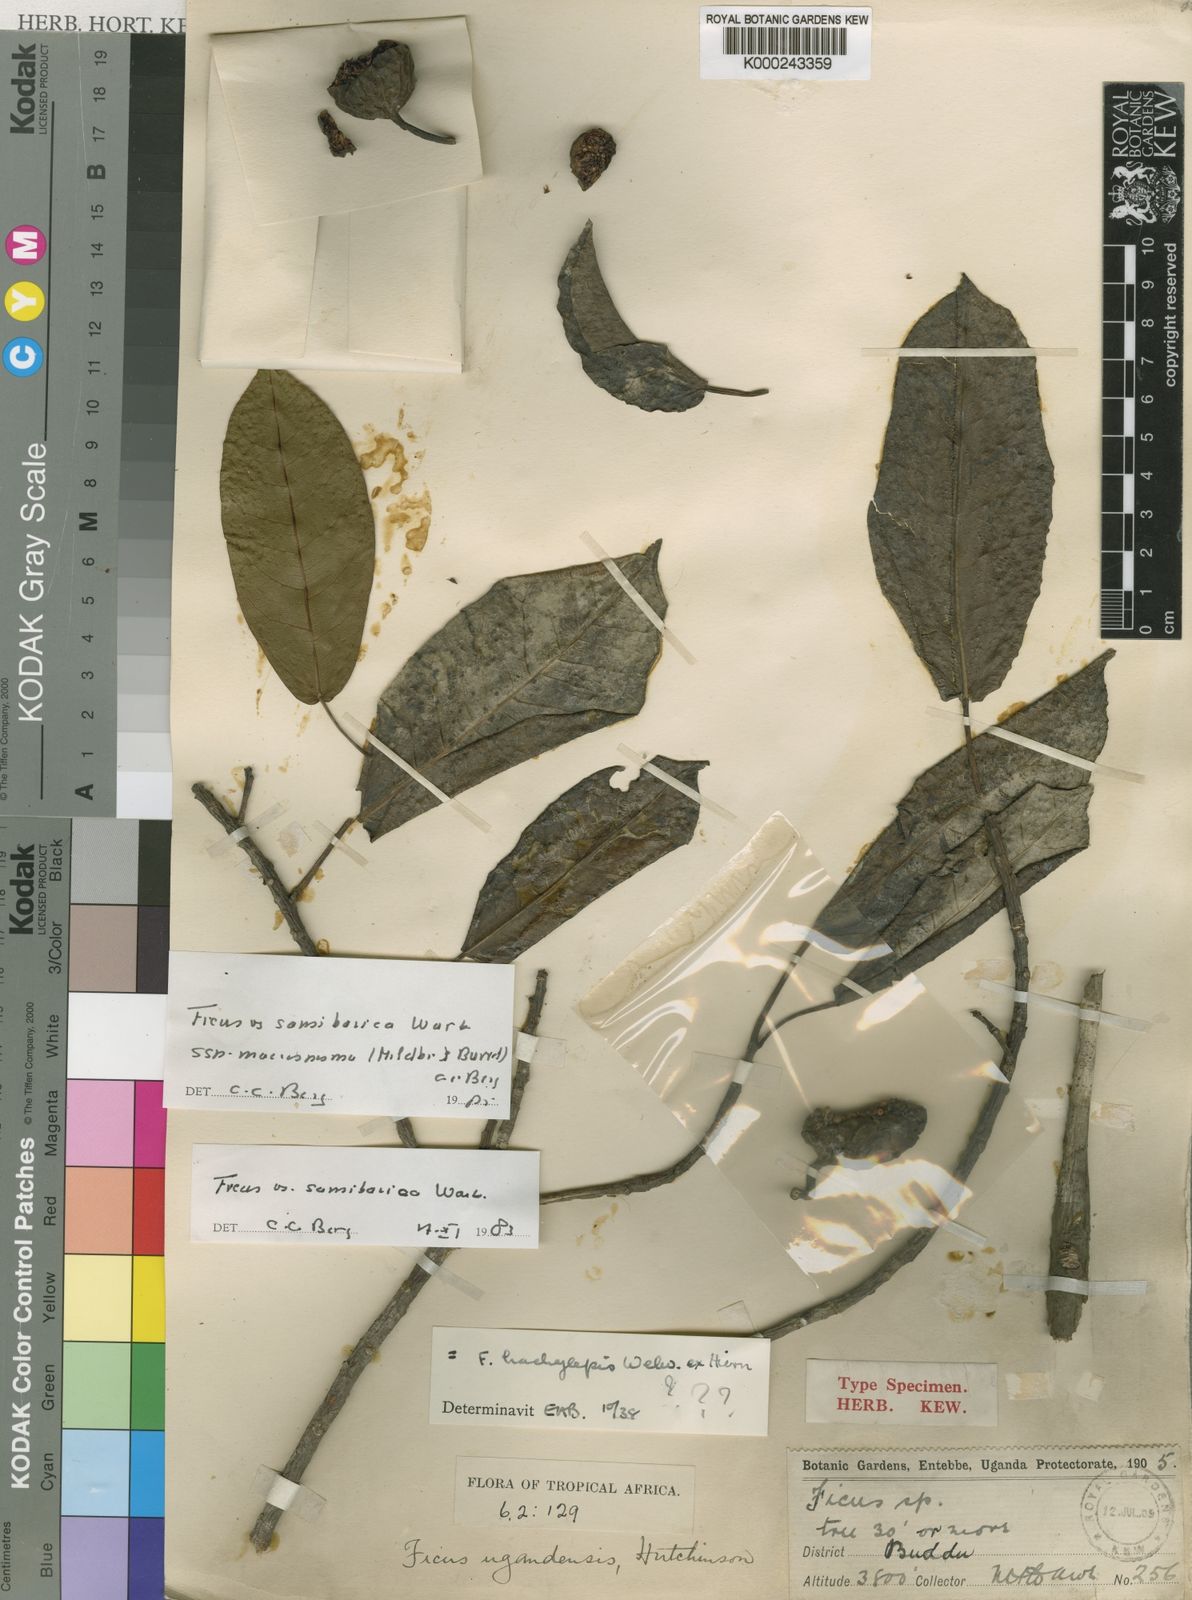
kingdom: Plantae
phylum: Tracheophyta
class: Magnoliopsida
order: Rosales
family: Moraceae
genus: Ficus
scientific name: Ficus sansibarica
